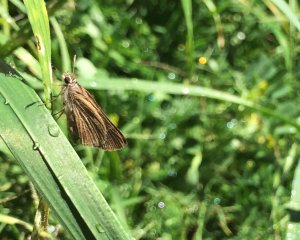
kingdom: Animalia
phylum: Arthropoda
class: Insecta
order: Lepidoptera
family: Hesperiidae
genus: Lerodea
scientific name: Lerodea eufala
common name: Eufala Skipper
